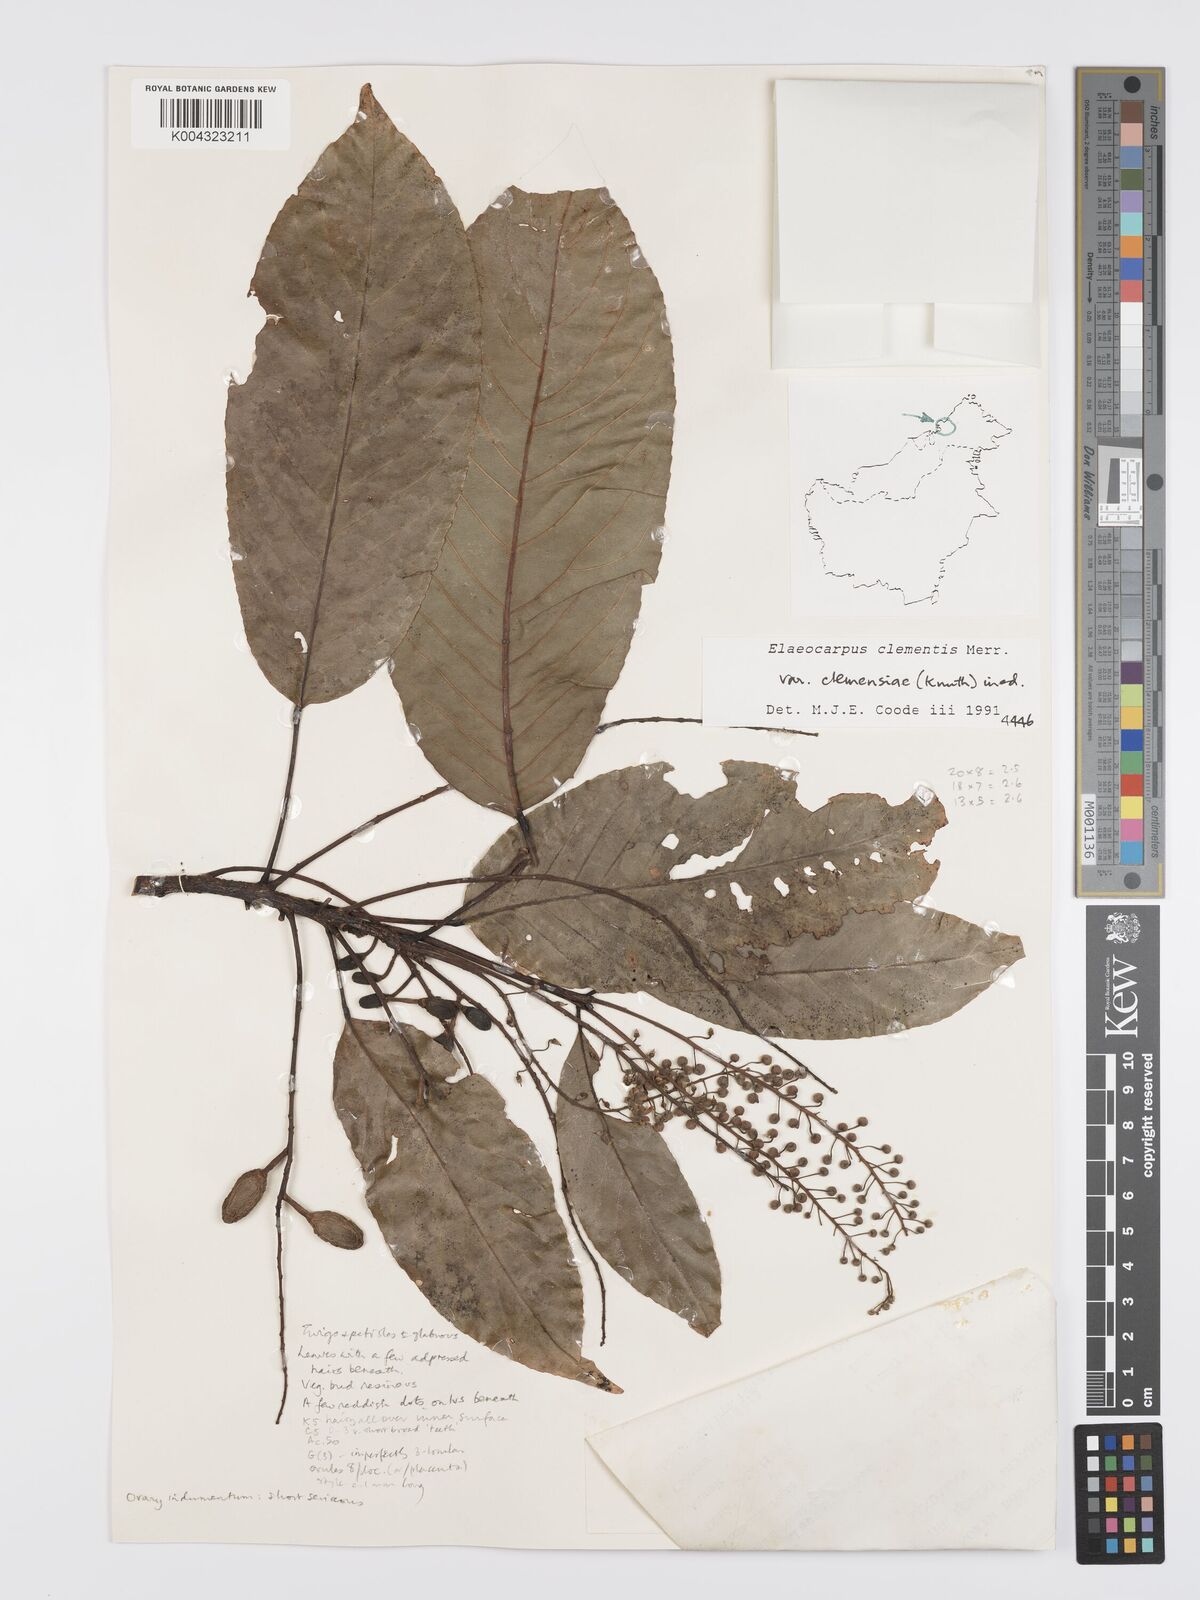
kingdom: Plantae
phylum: Tracheophyta
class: Magnoliopsida
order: Oxalidales
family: Elaeocarpaceae
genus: Elaeocarpus
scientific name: Elaeocarpus clementis
